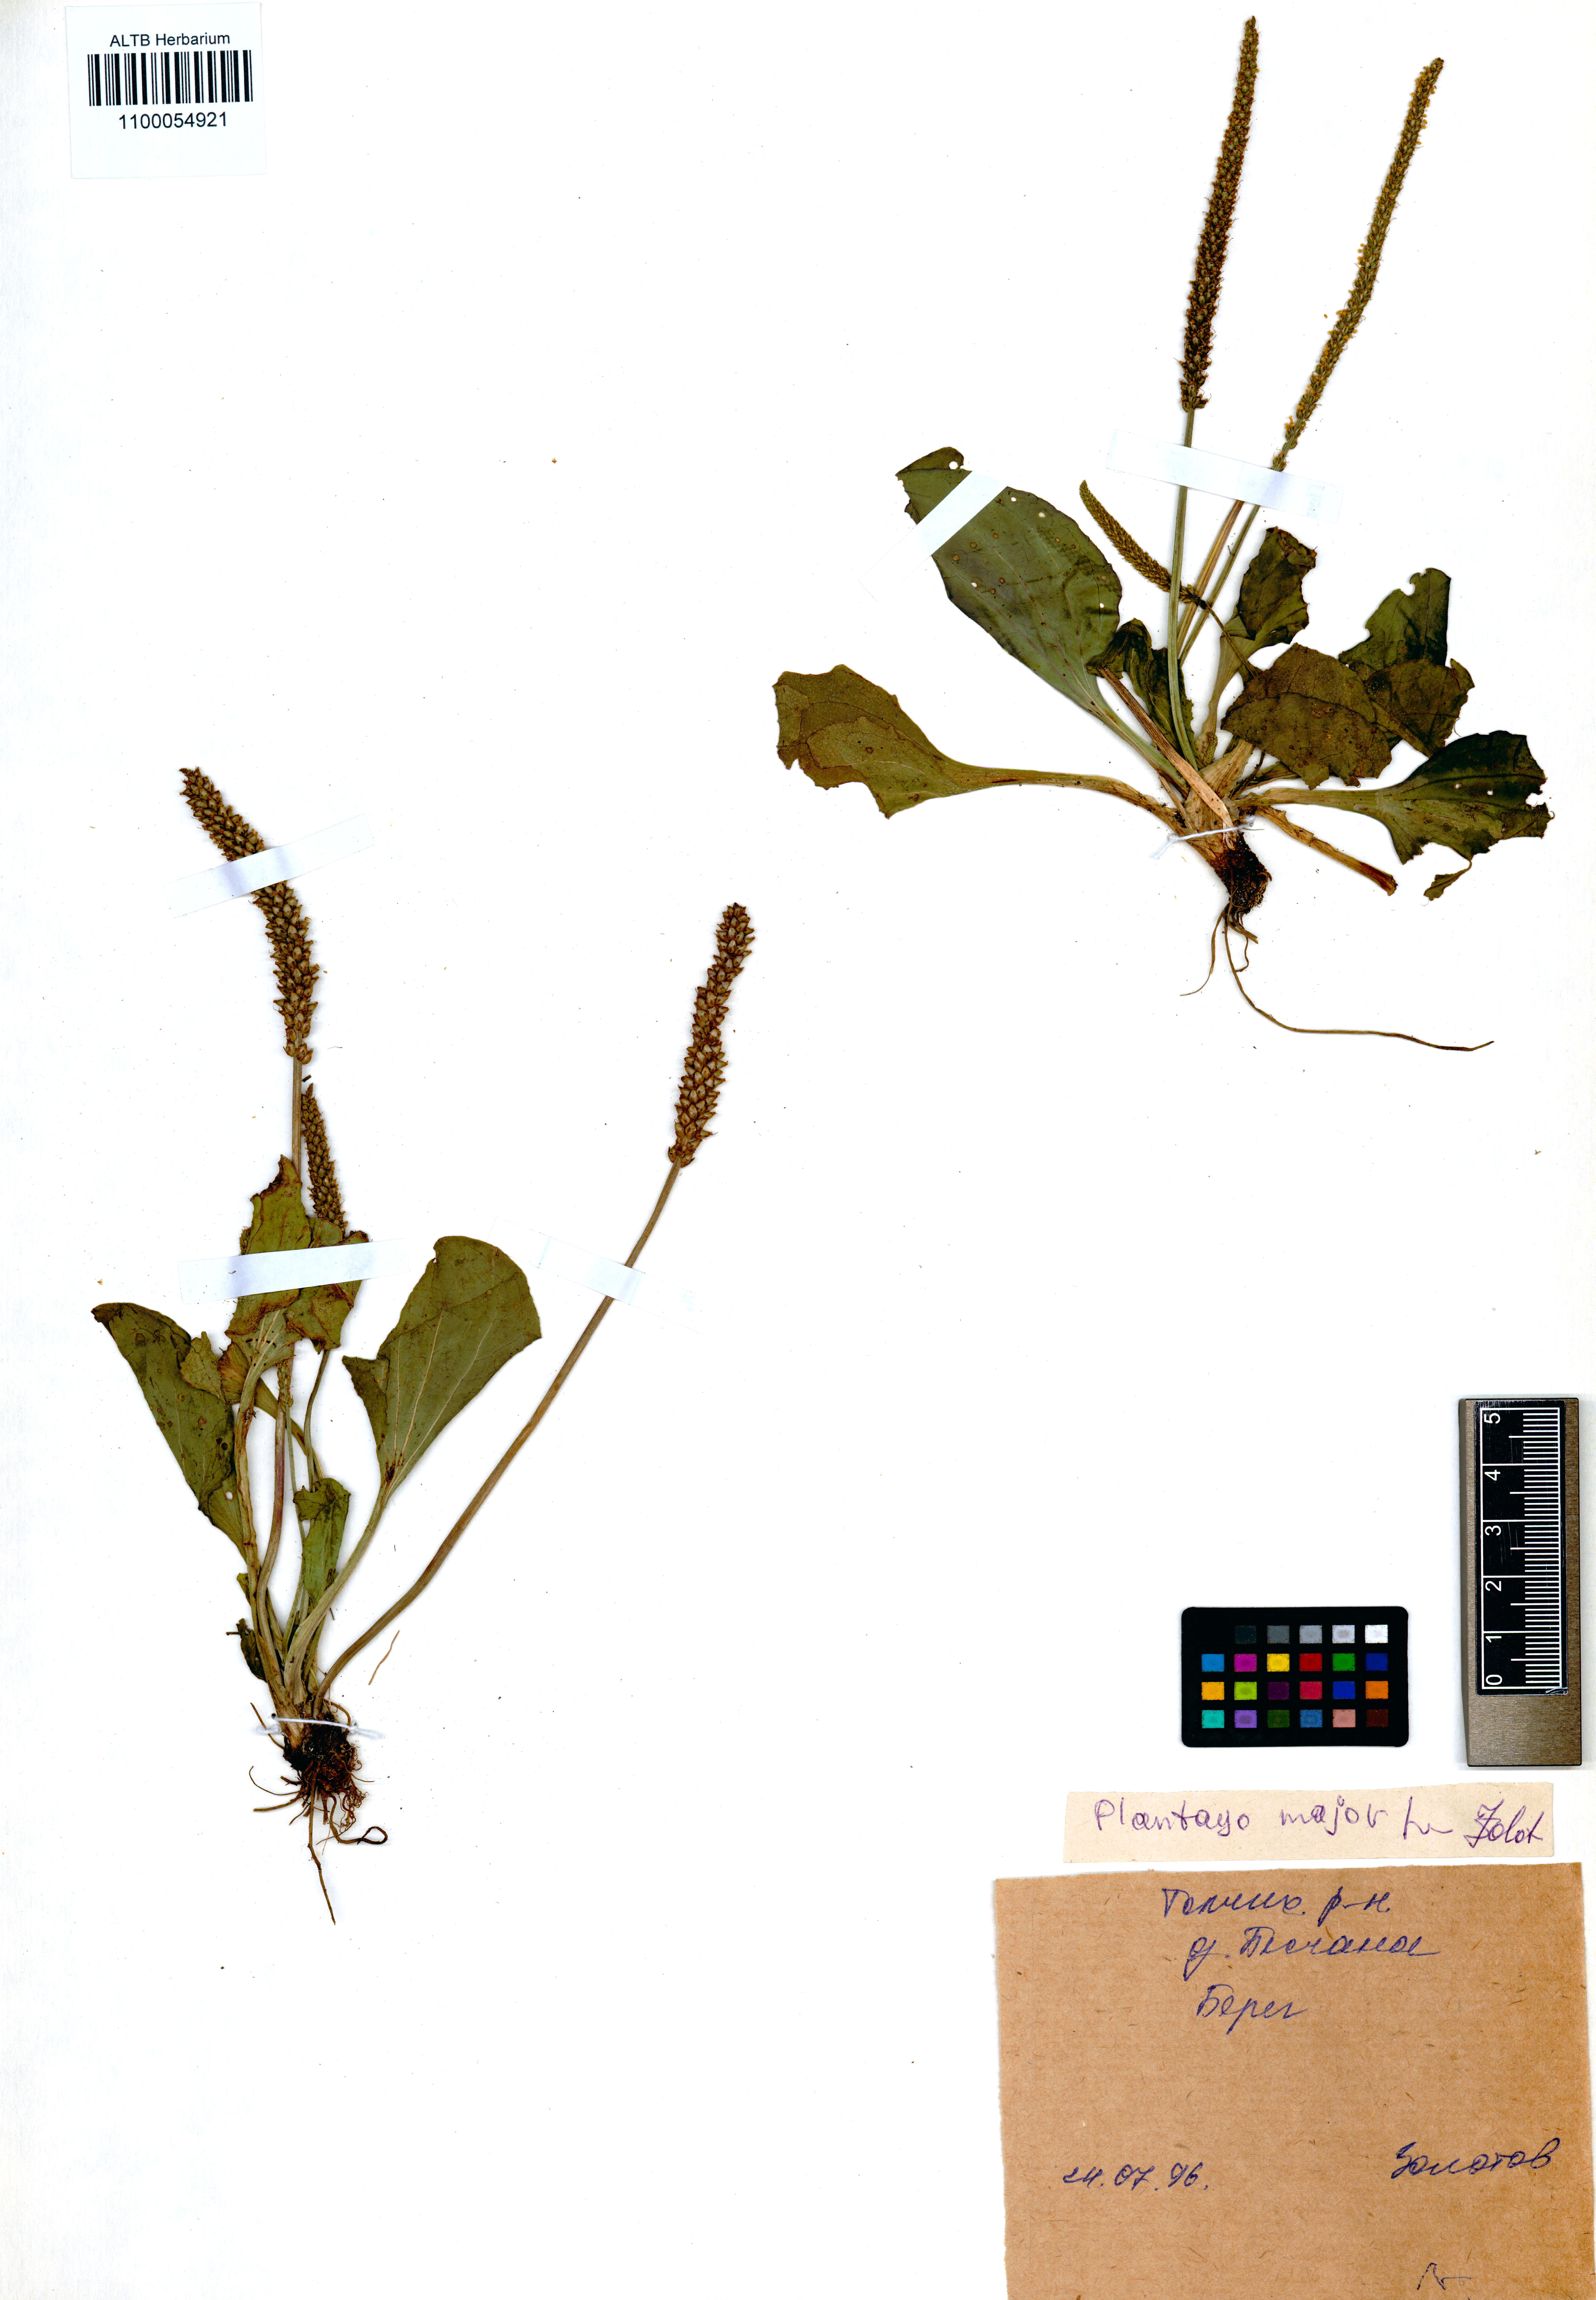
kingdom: Plantae
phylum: Tracheophyta
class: Magnoliopsida
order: Lamiales
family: Plantaginaceae
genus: Plantago
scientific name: Plantago major
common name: Common plantain
